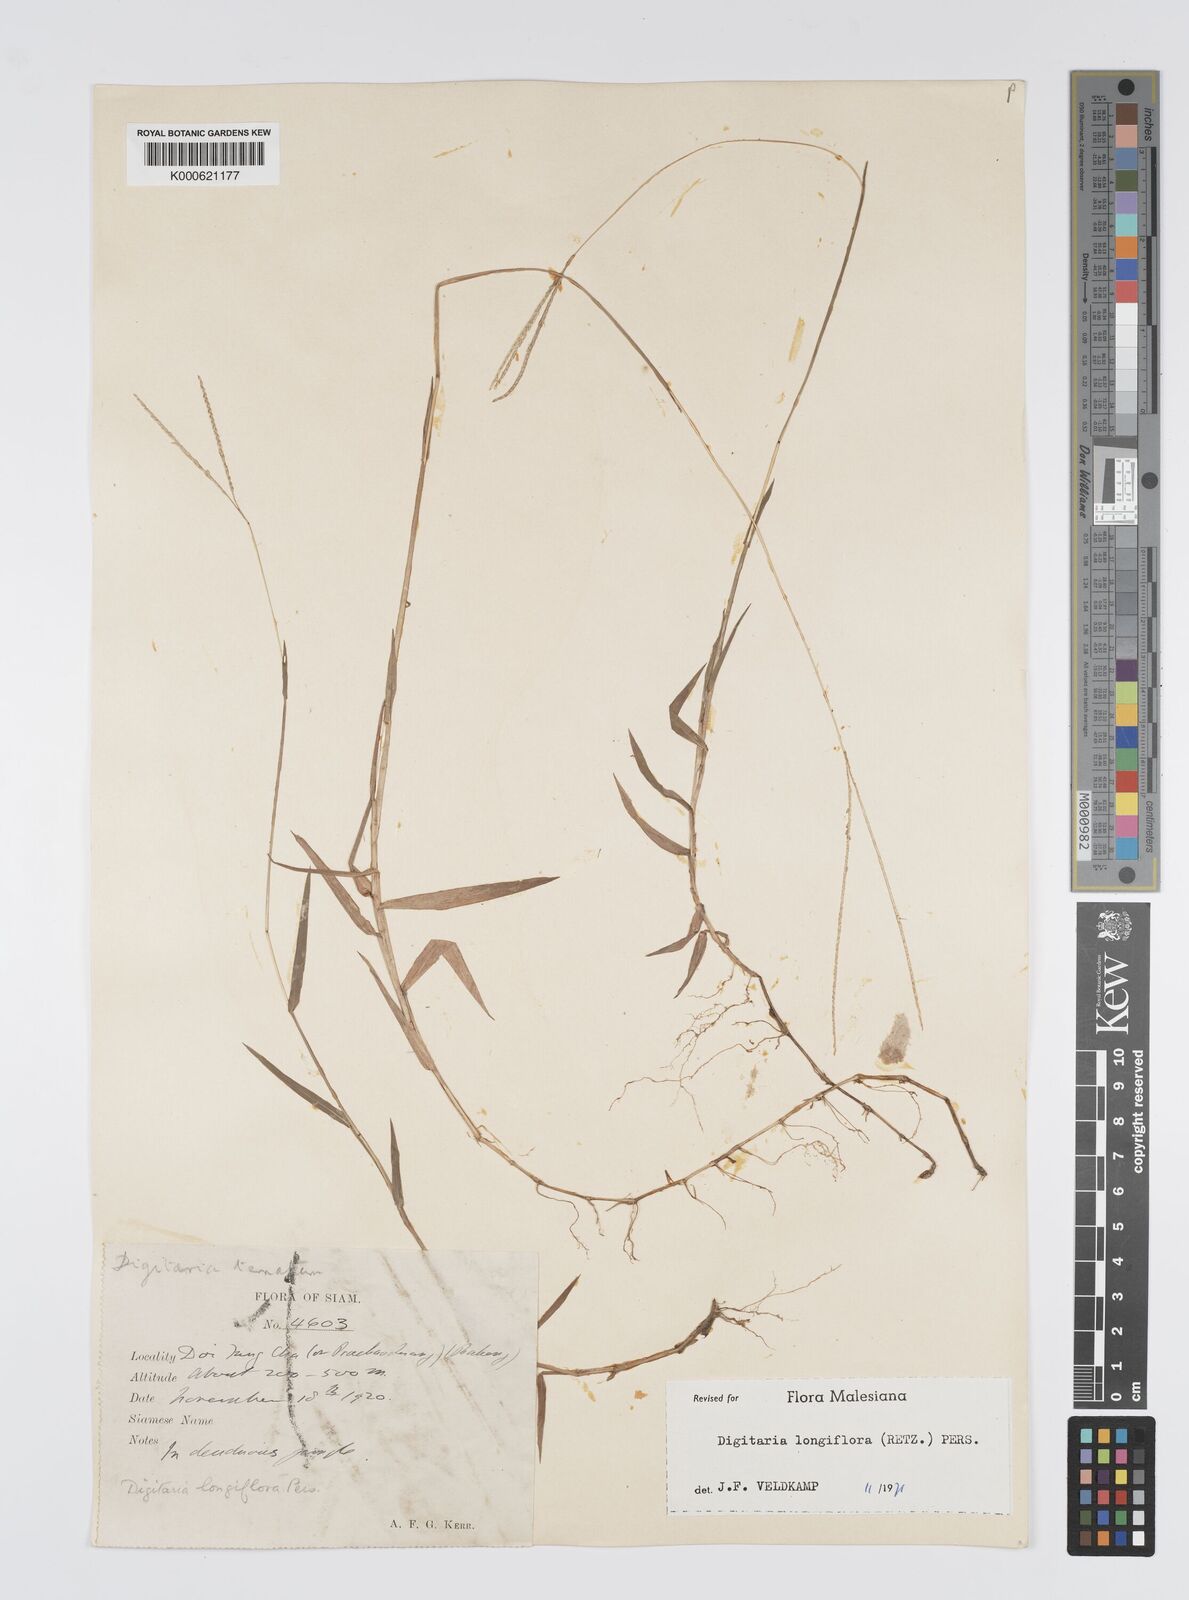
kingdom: Plantae
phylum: Tracheophyta
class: Liliopsida
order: Poales
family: Poaceae
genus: Digitaria
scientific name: Digitaria longiflora
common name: Wire crabgrass
